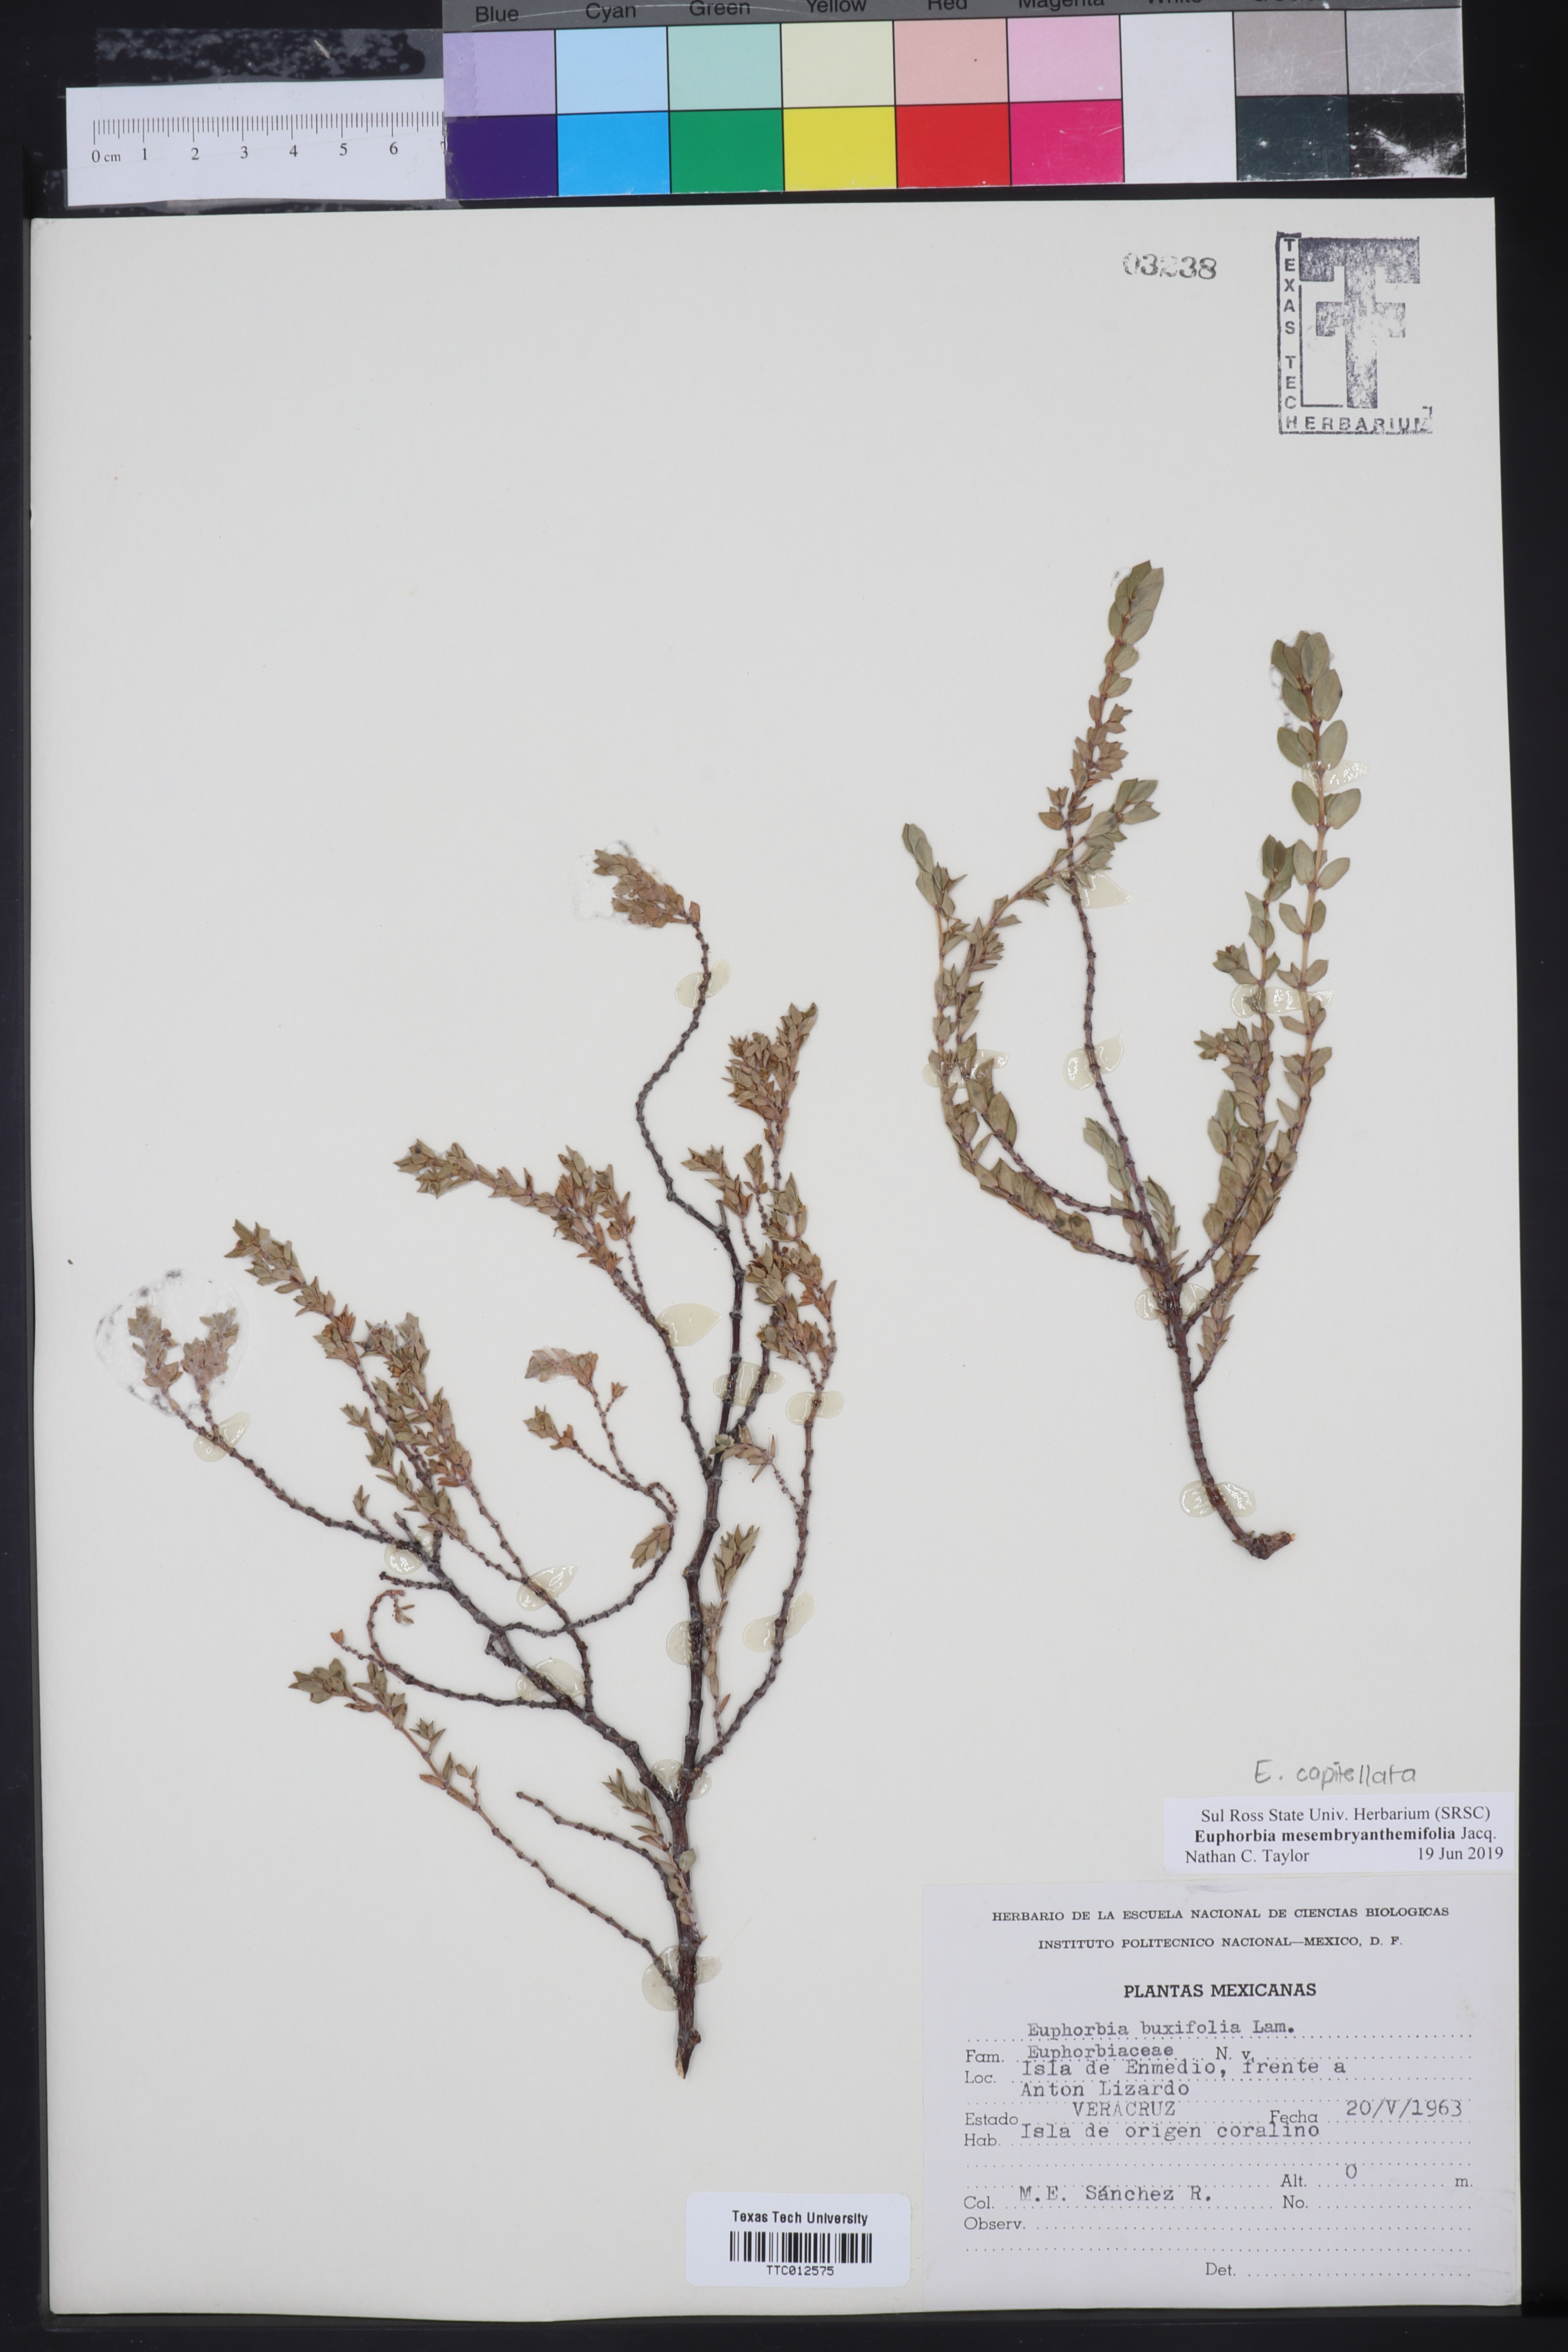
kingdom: Plantae
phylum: Tracheophyta
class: Magnoliopsida
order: Malpighiales
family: Euphorbiaceae
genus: Euphorbia
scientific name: Euphorbia mesembryanthemifolia
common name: Coastal beach sandmat
